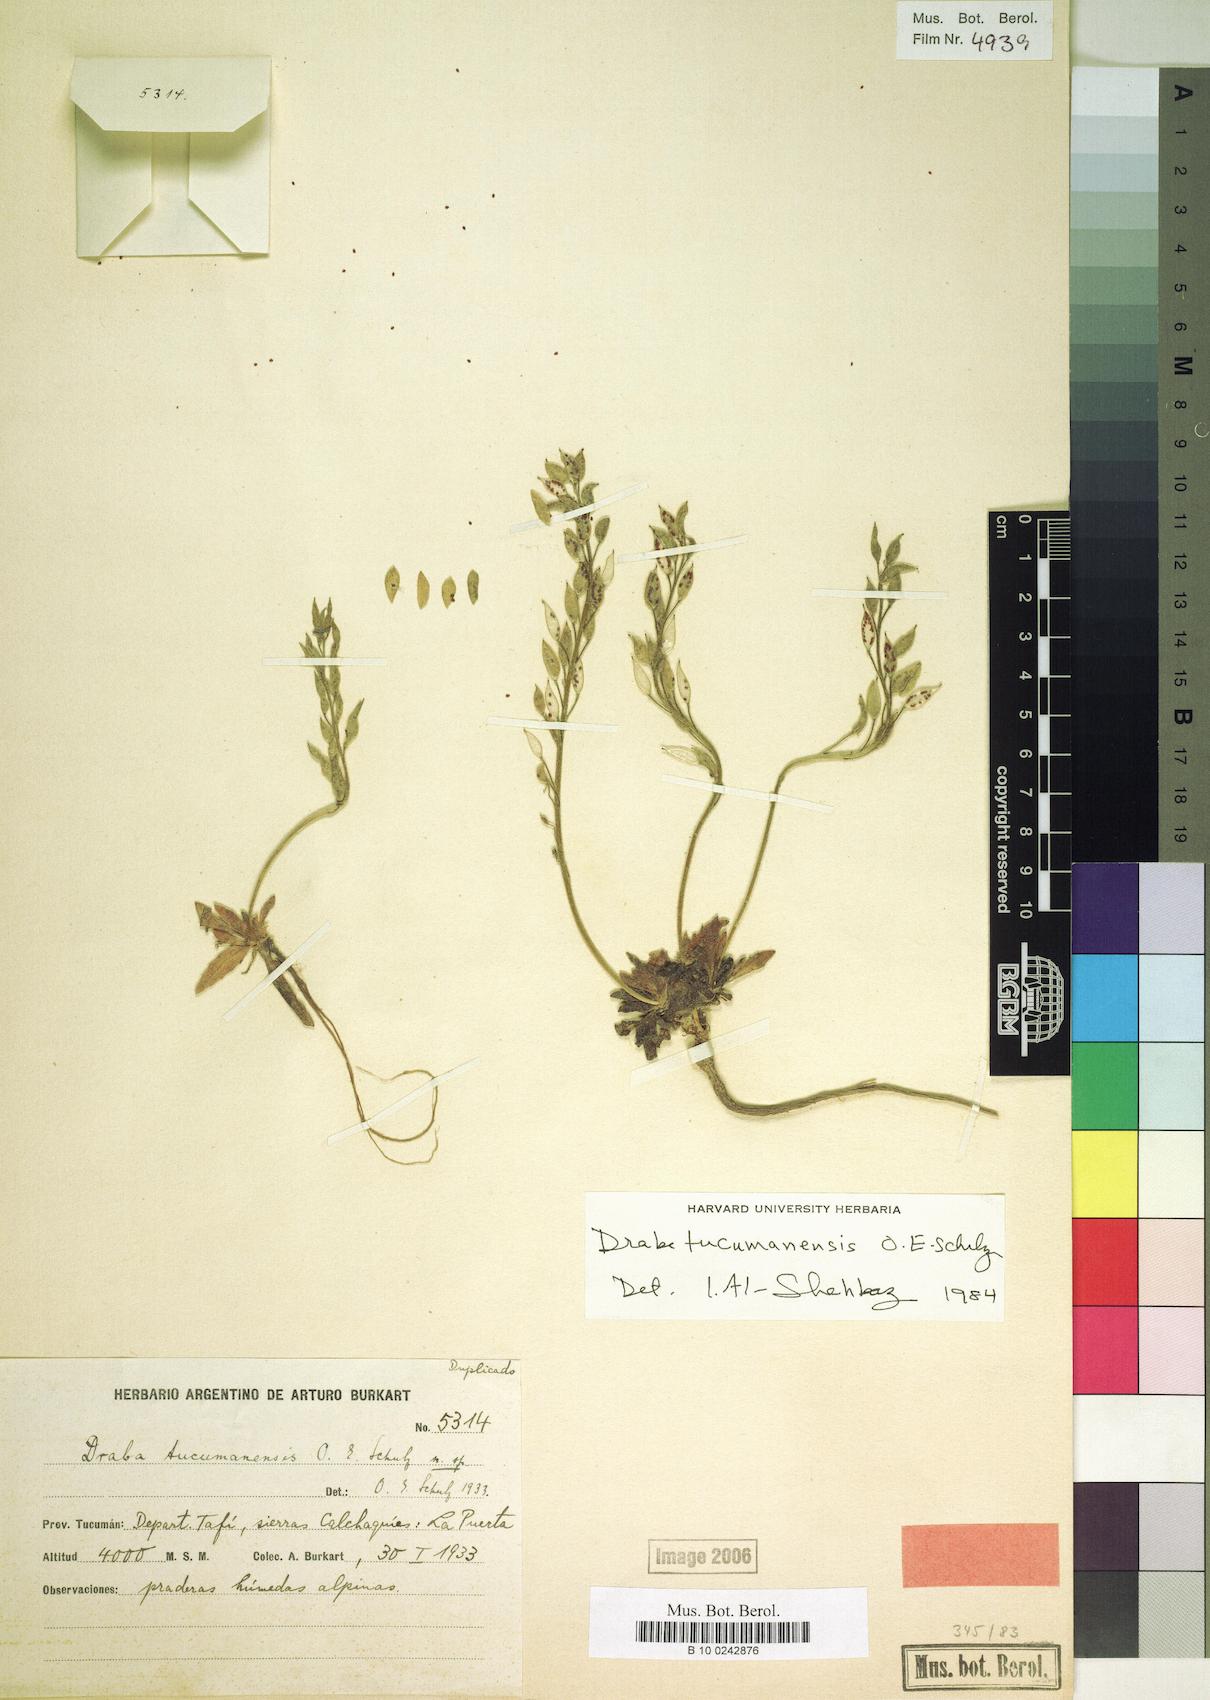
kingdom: Plantae
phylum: Tracheophyta
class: Magnoliopsida
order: Brassicales
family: Brassicaceae
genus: Draba
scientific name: Draba tucumanensis
